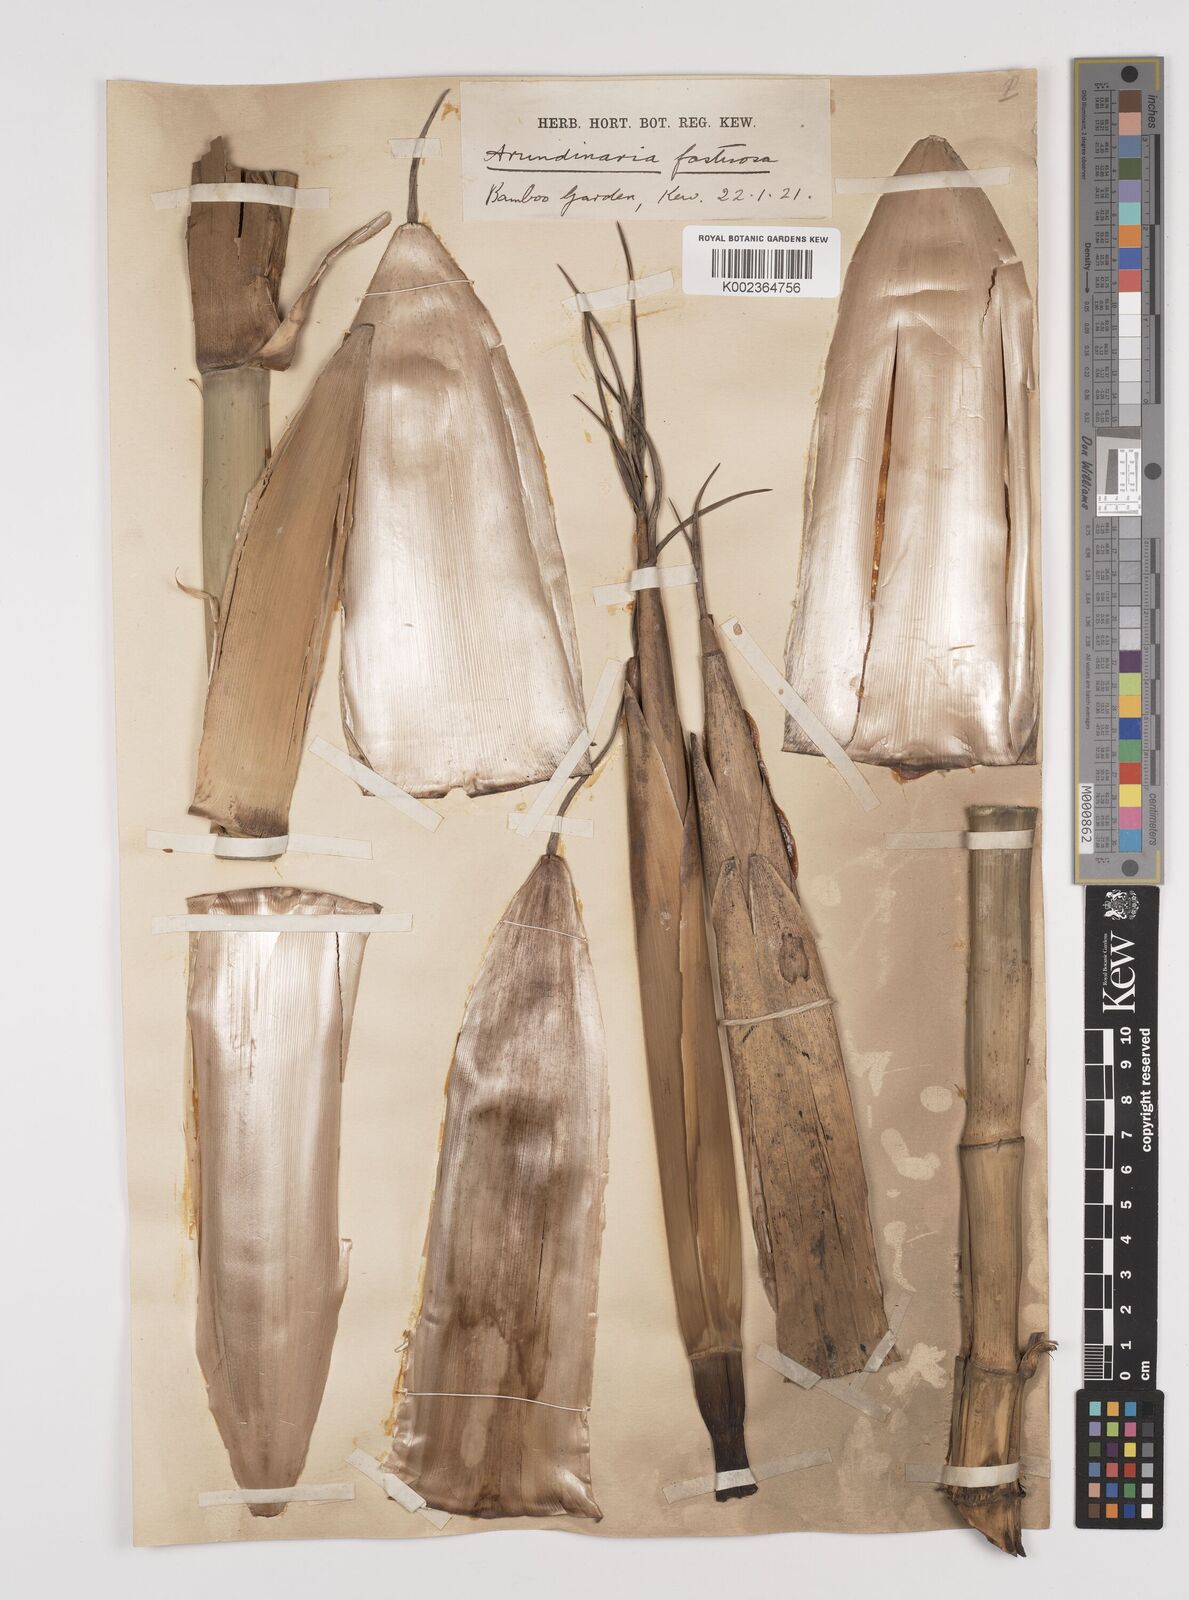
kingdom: Plantae
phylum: Tracheophyta
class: Liliopsida
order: Poales
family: Poaceae
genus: Semiarundinaria
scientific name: Semiarundinaria fastuosa
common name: Narihira bamboo
